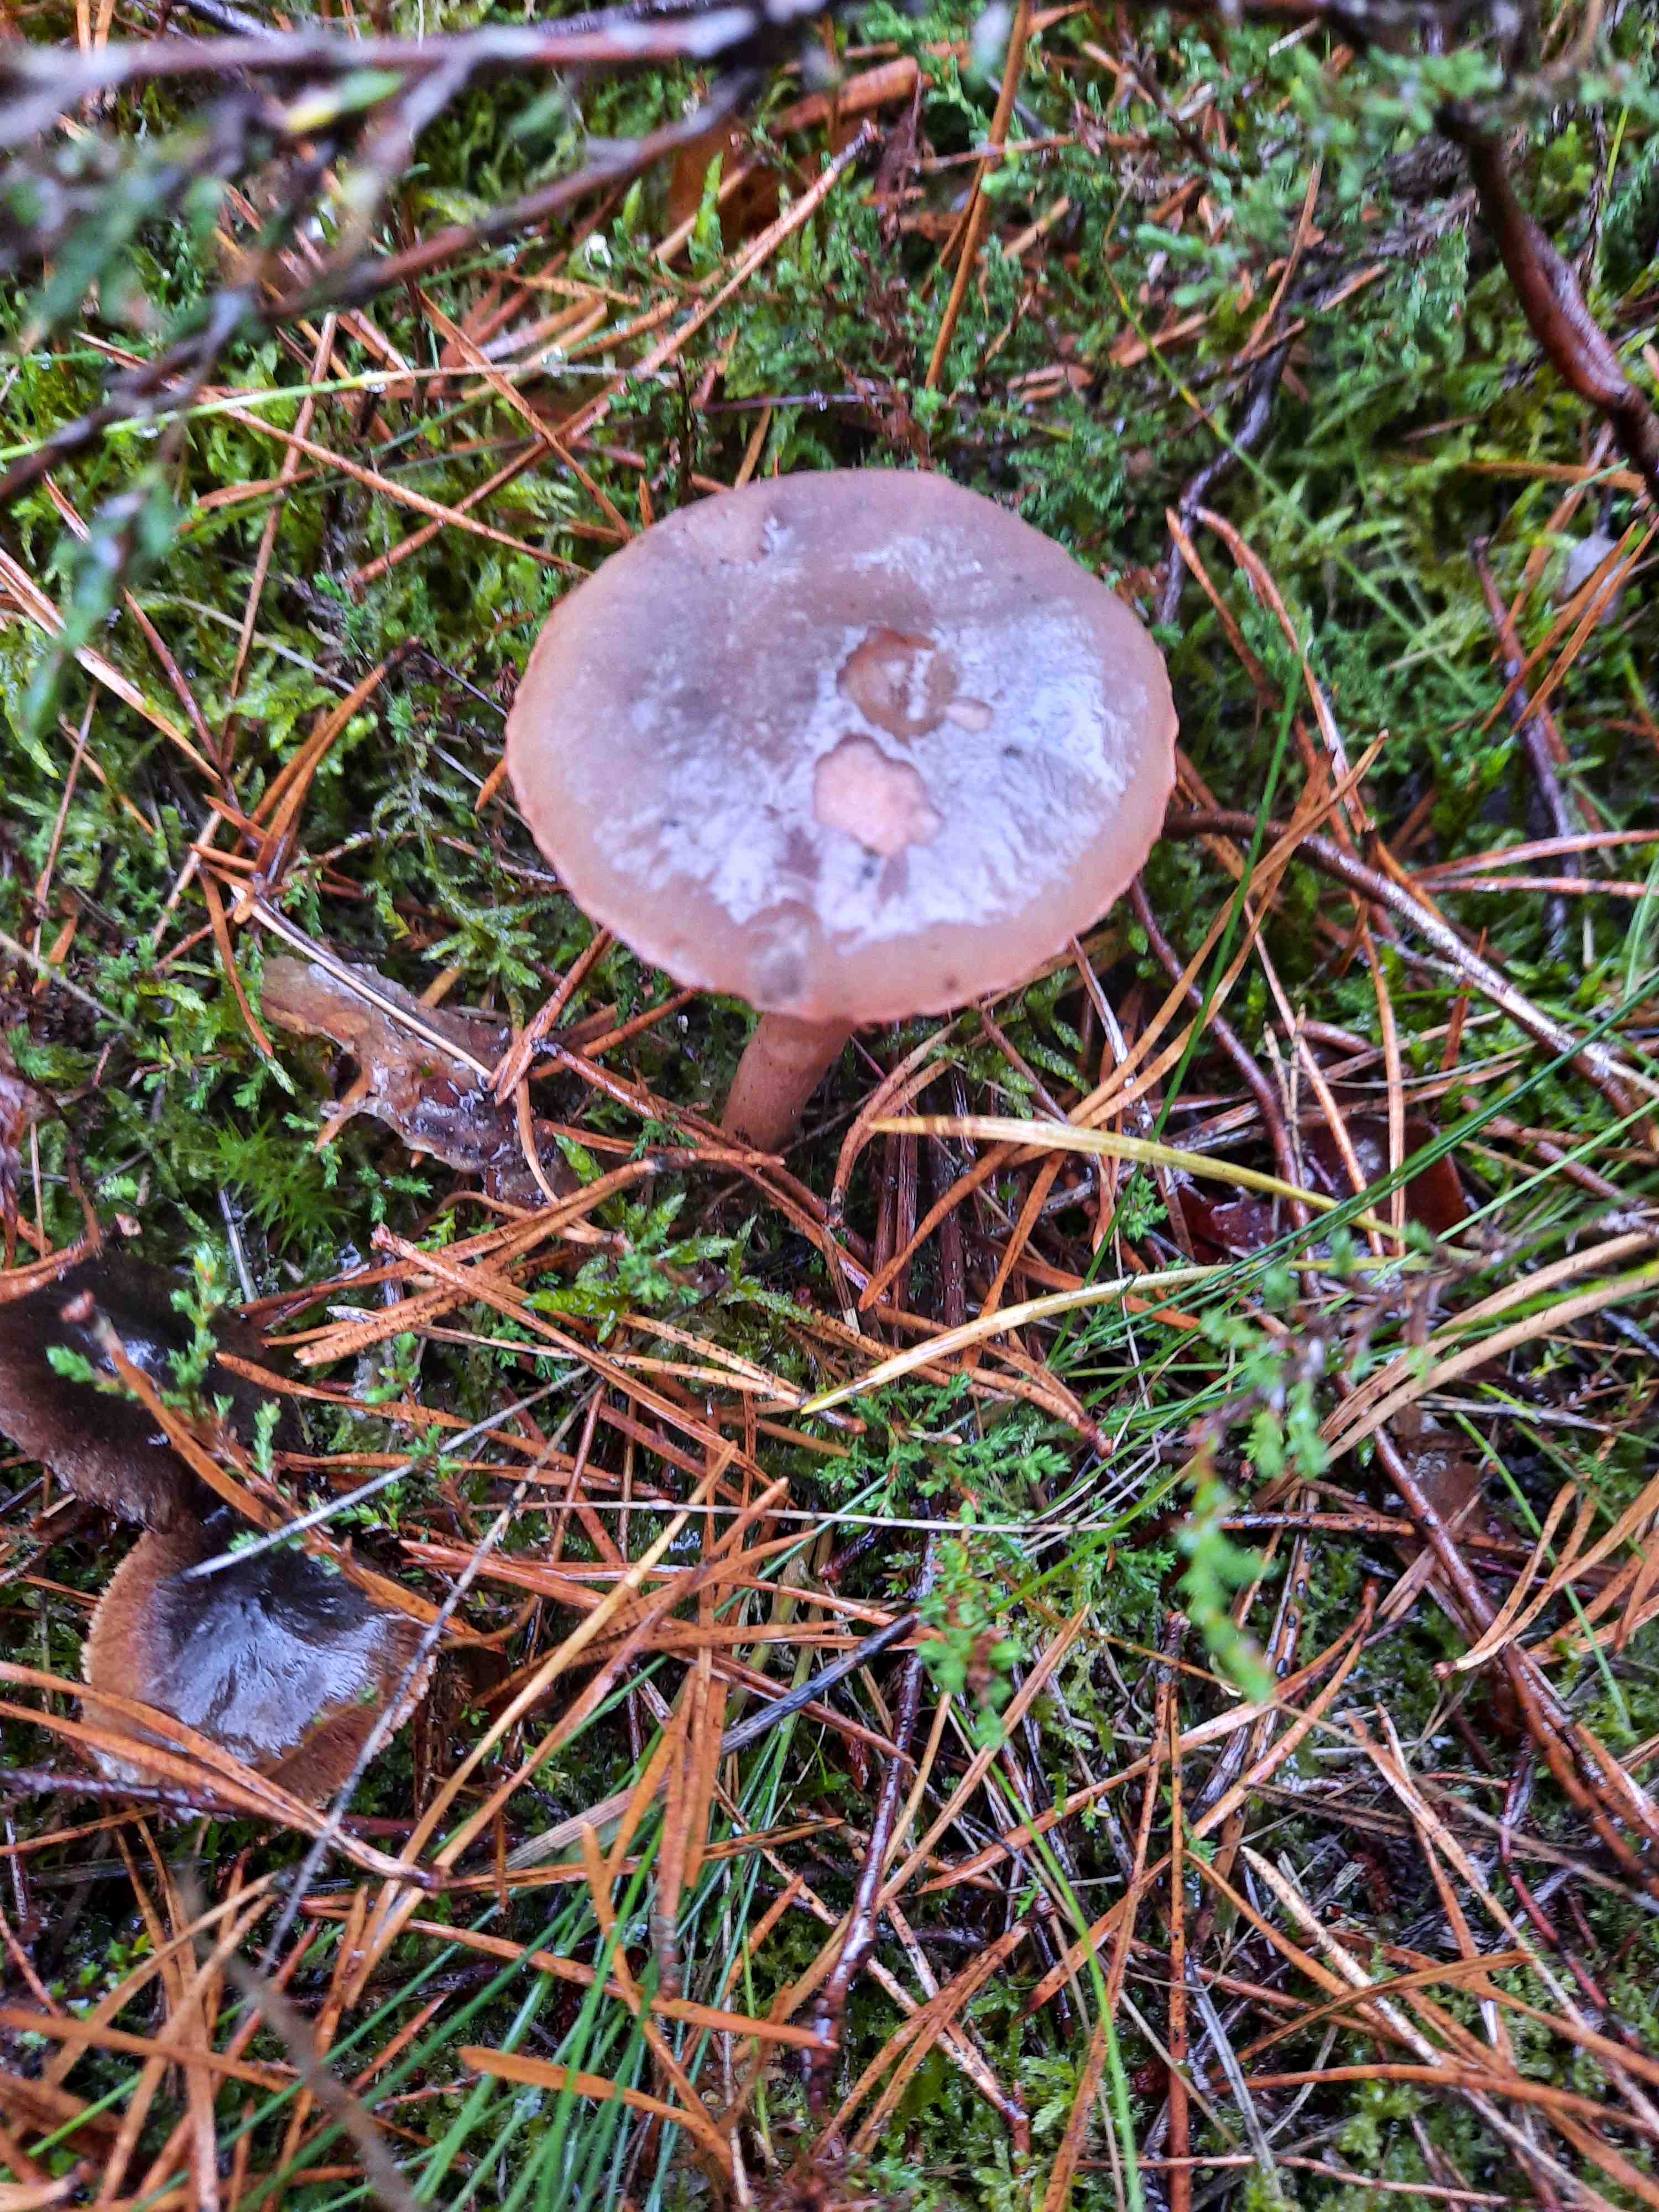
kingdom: Fungi
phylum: Basidiomycota
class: Agaricomycetes
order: Boletales
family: Gomphidiaceae
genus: Chroogomphus
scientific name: Chroogomphus rutilus
